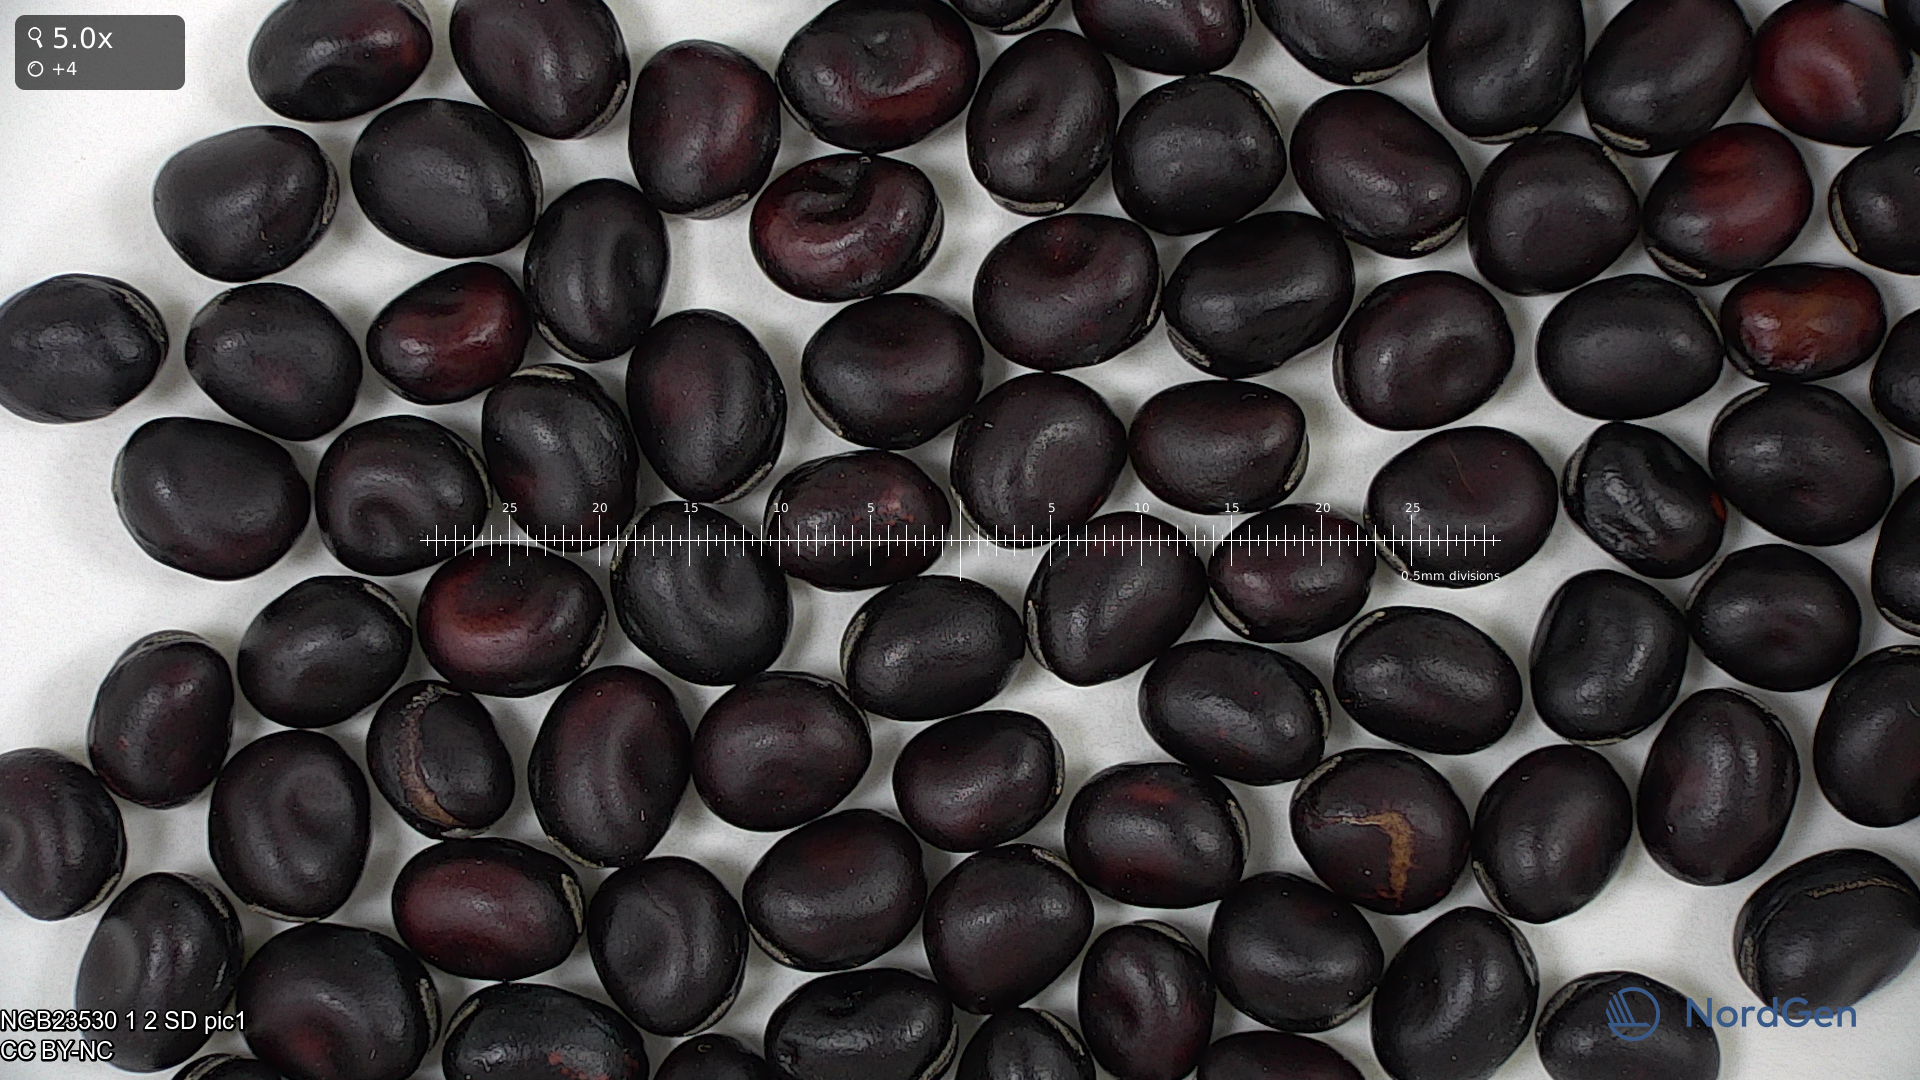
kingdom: Plantae
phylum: Tracheophyta
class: Magnoliopsida
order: Fabales
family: Fabaceae
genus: Vicia
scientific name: Vicia faba
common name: Broad bean
